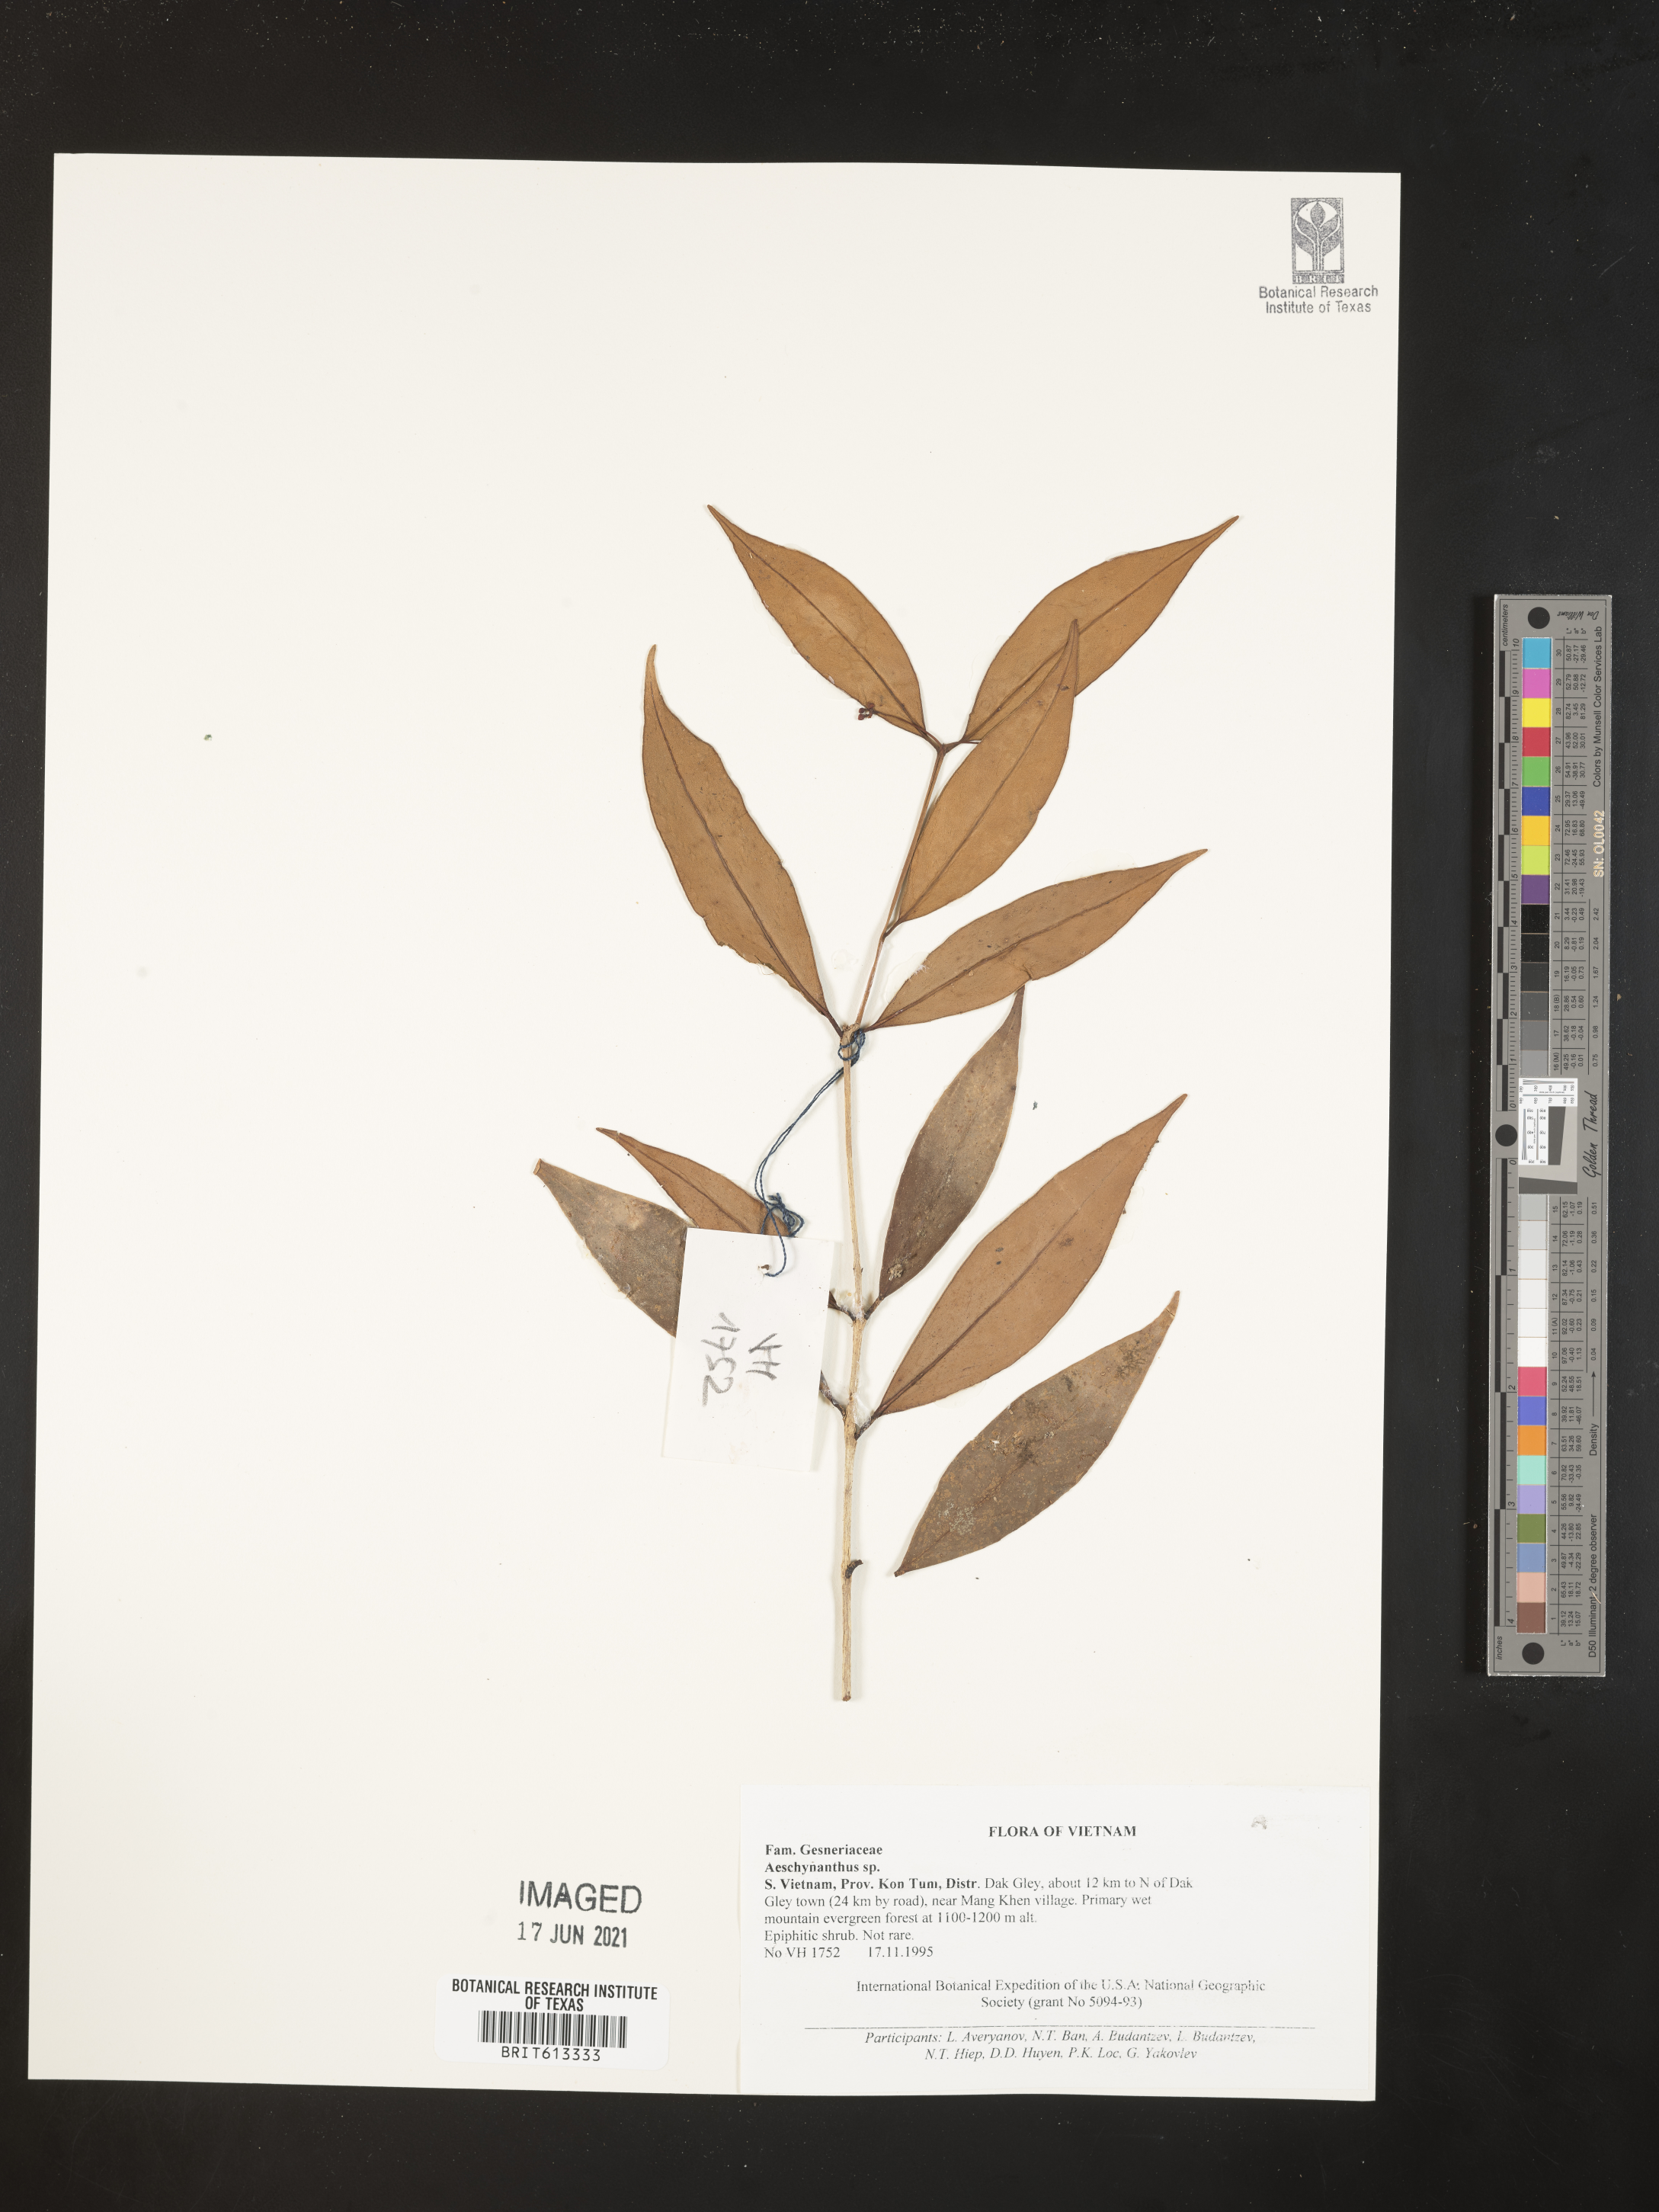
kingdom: Plantae
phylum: Tracheophyta
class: Magnoliopsida
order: Lamiales
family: Gesneriaceae
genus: Aeschynanthus
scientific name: Aeschynanthus
